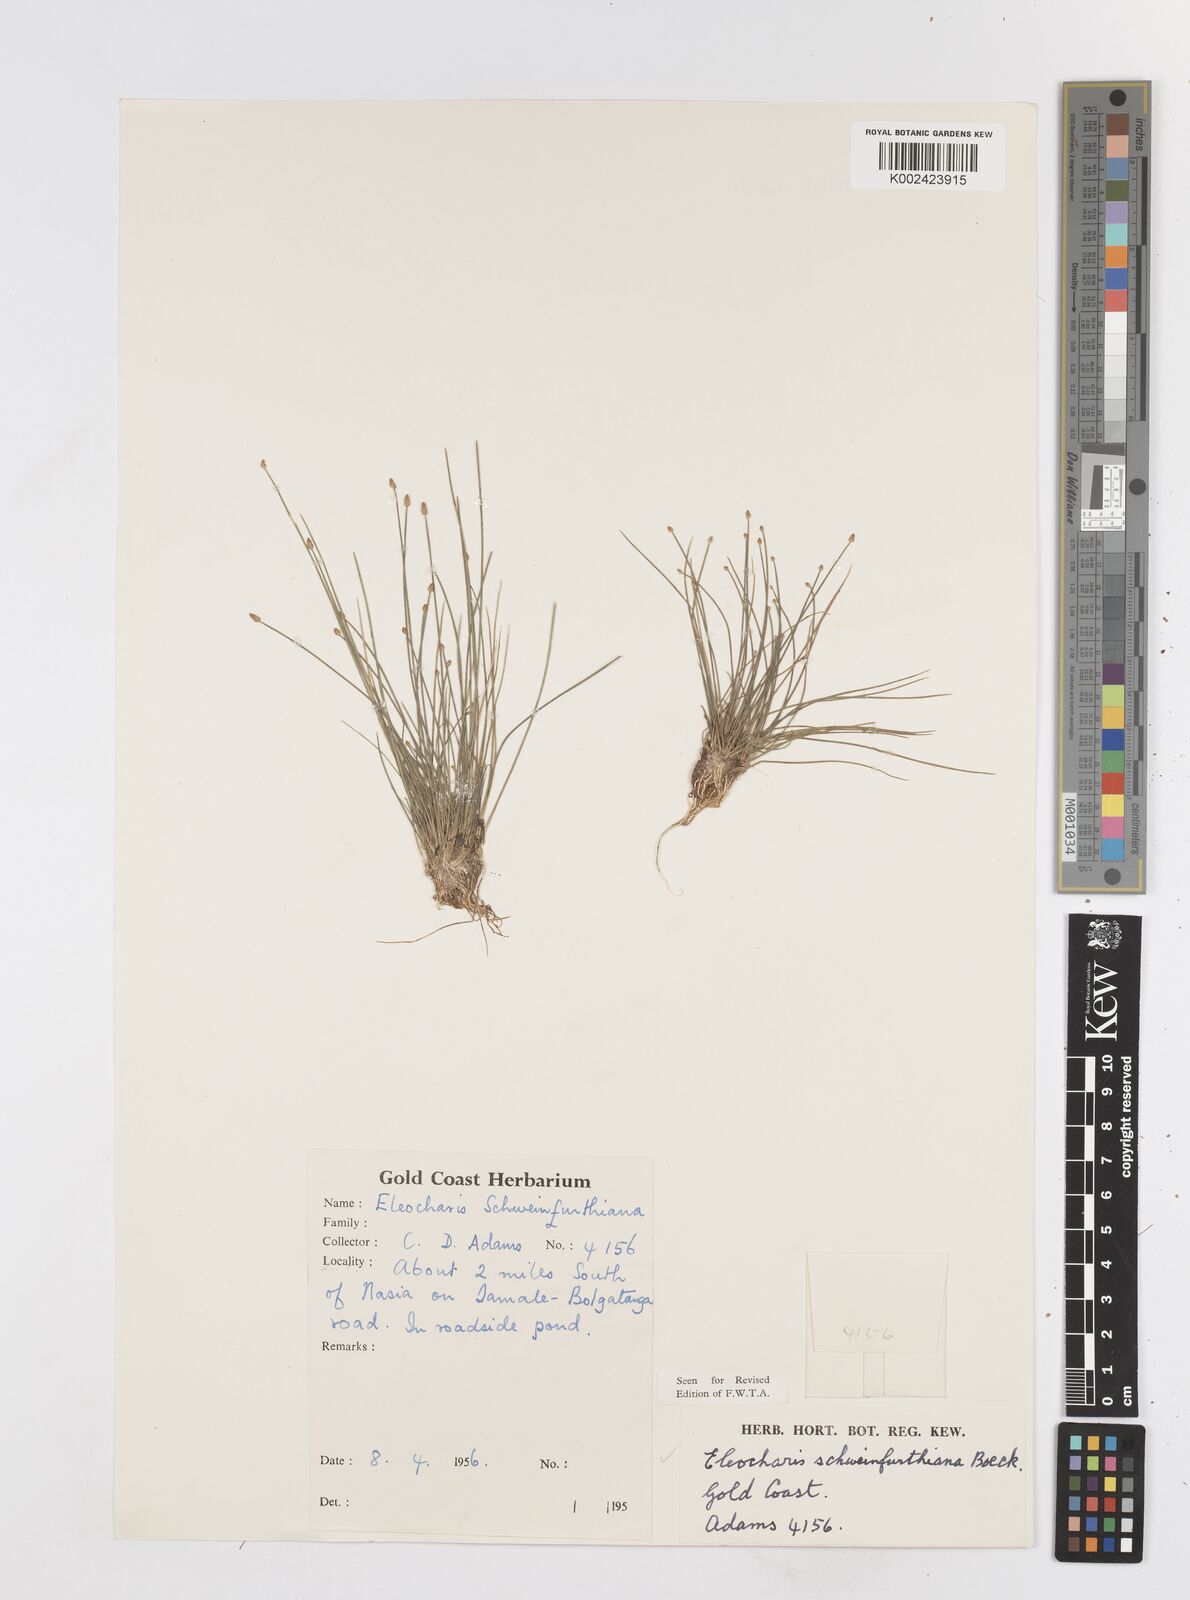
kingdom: Plantae
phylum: Tracheophyta
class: Liliopsida
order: Poales
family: Cyperaceae
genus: Eleocharis
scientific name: Eleocharis setifolia
